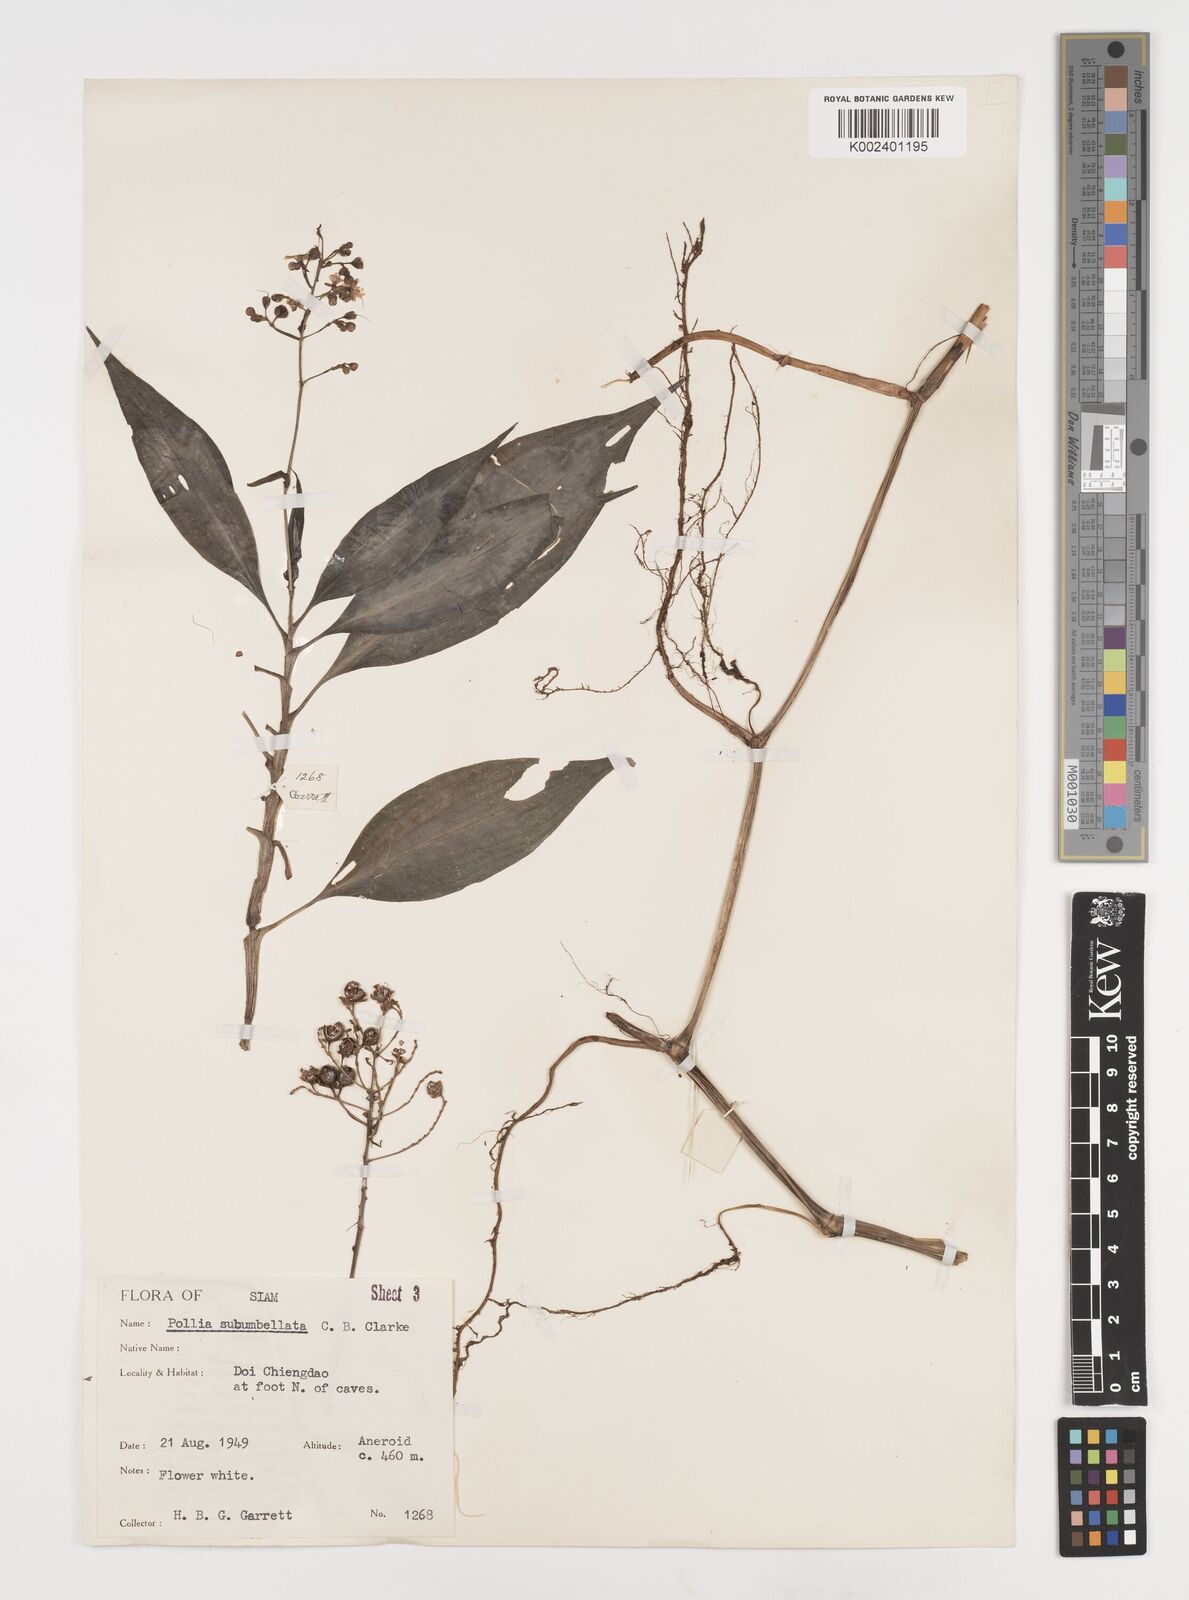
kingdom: Plantae
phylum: Tracheophyta
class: Liliopsida
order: Commelinales
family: Commelinaceae
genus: Pollia
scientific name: Pollia secundiflora
